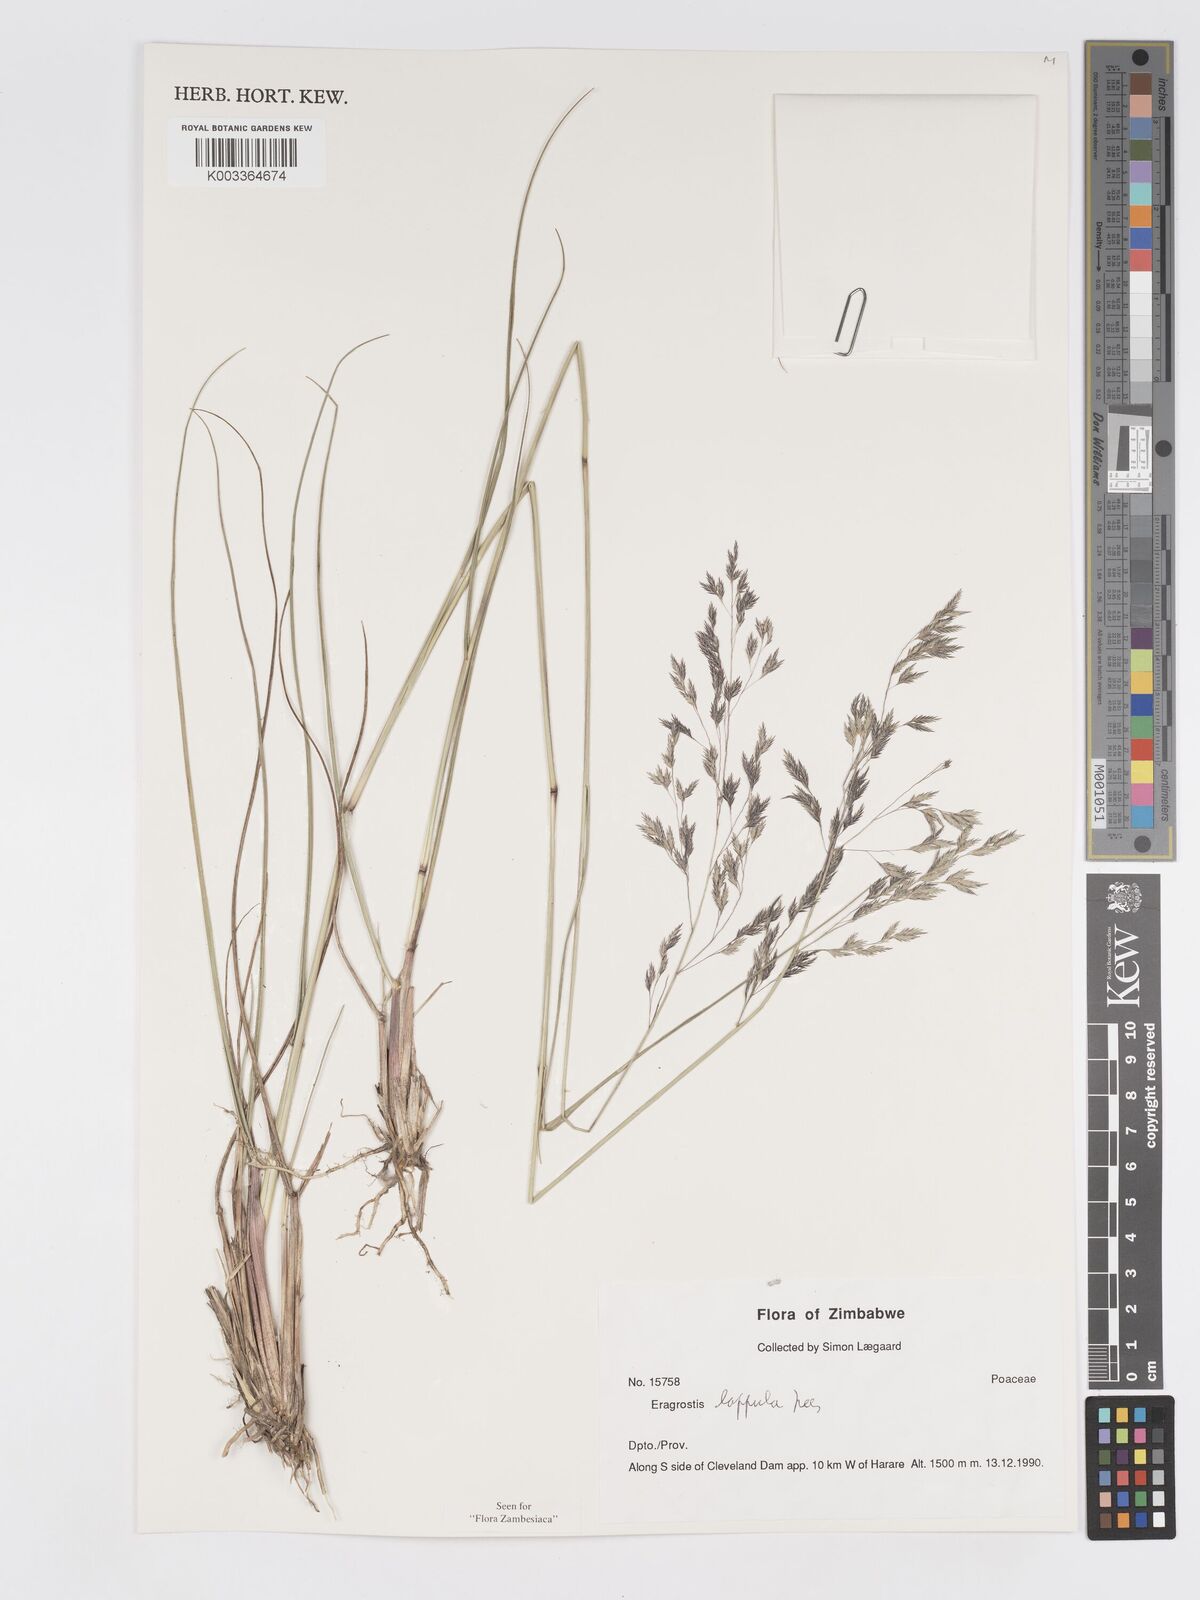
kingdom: Plantae
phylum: Tracheophyta
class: Liliopsida
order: Poales
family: Poaceae
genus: Eragrostis
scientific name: Eragrostis lappula
